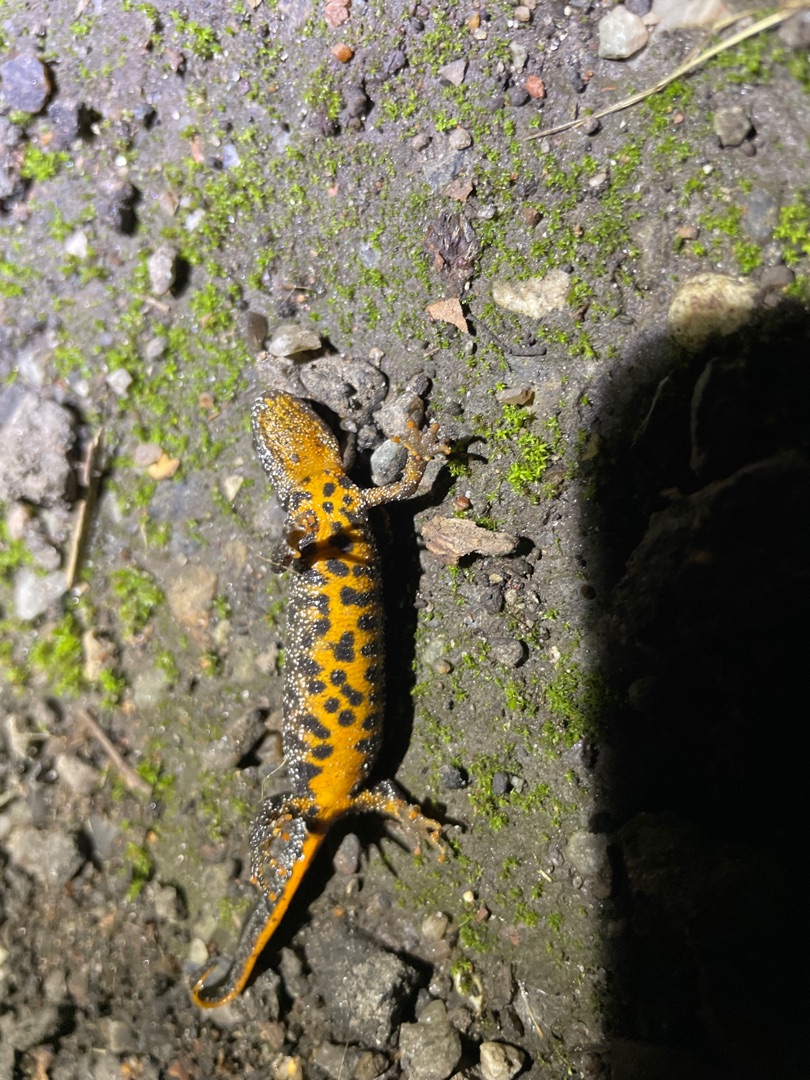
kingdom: Animalia
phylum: Chordata
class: Amphibia
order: Caudata
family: Salamandridae
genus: Triturus
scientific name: Triturus cristatus
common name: Stor vandsalamander
